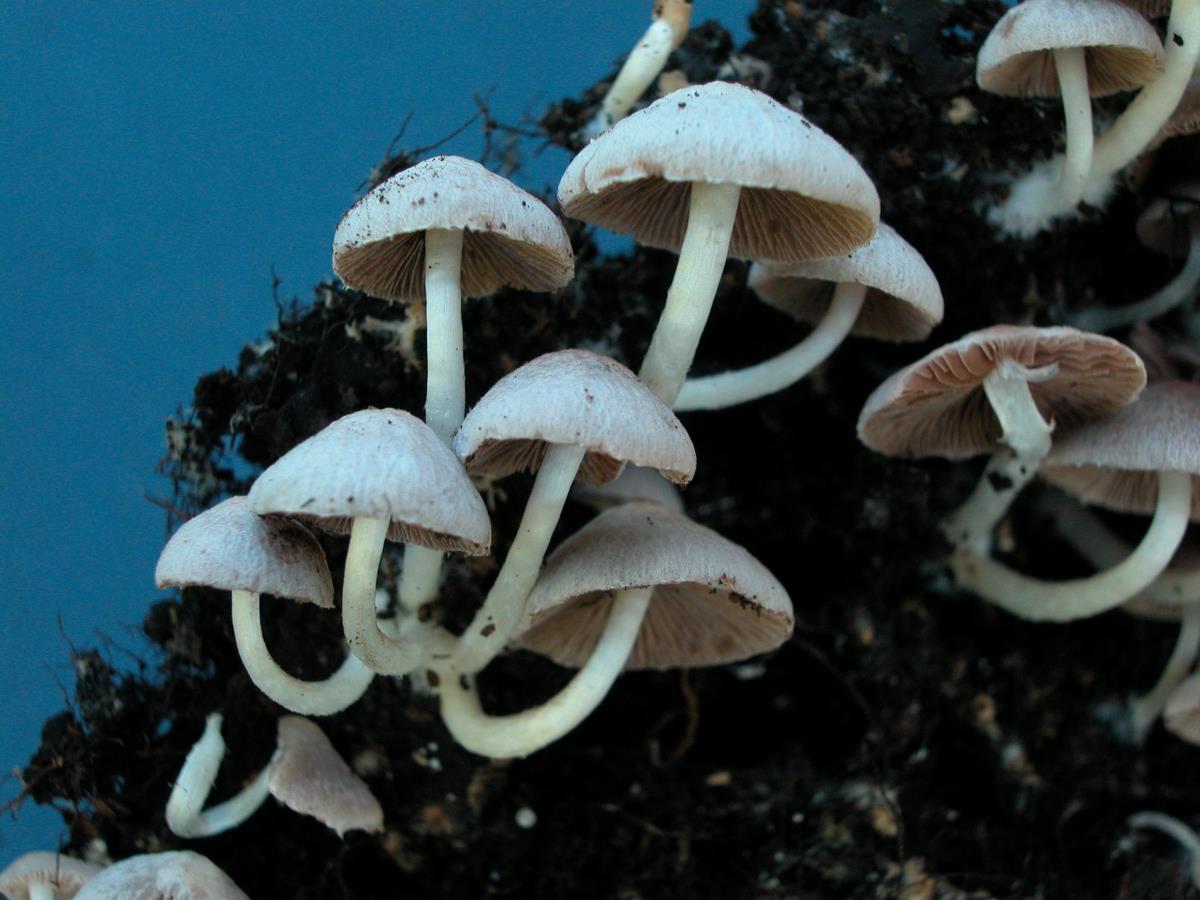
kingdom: Fungi
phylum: Basidiomycota
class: Agaricomycetes
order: Agaricales
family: Psathyrellaceae
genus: Coprinellus
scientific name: Coprinellus
